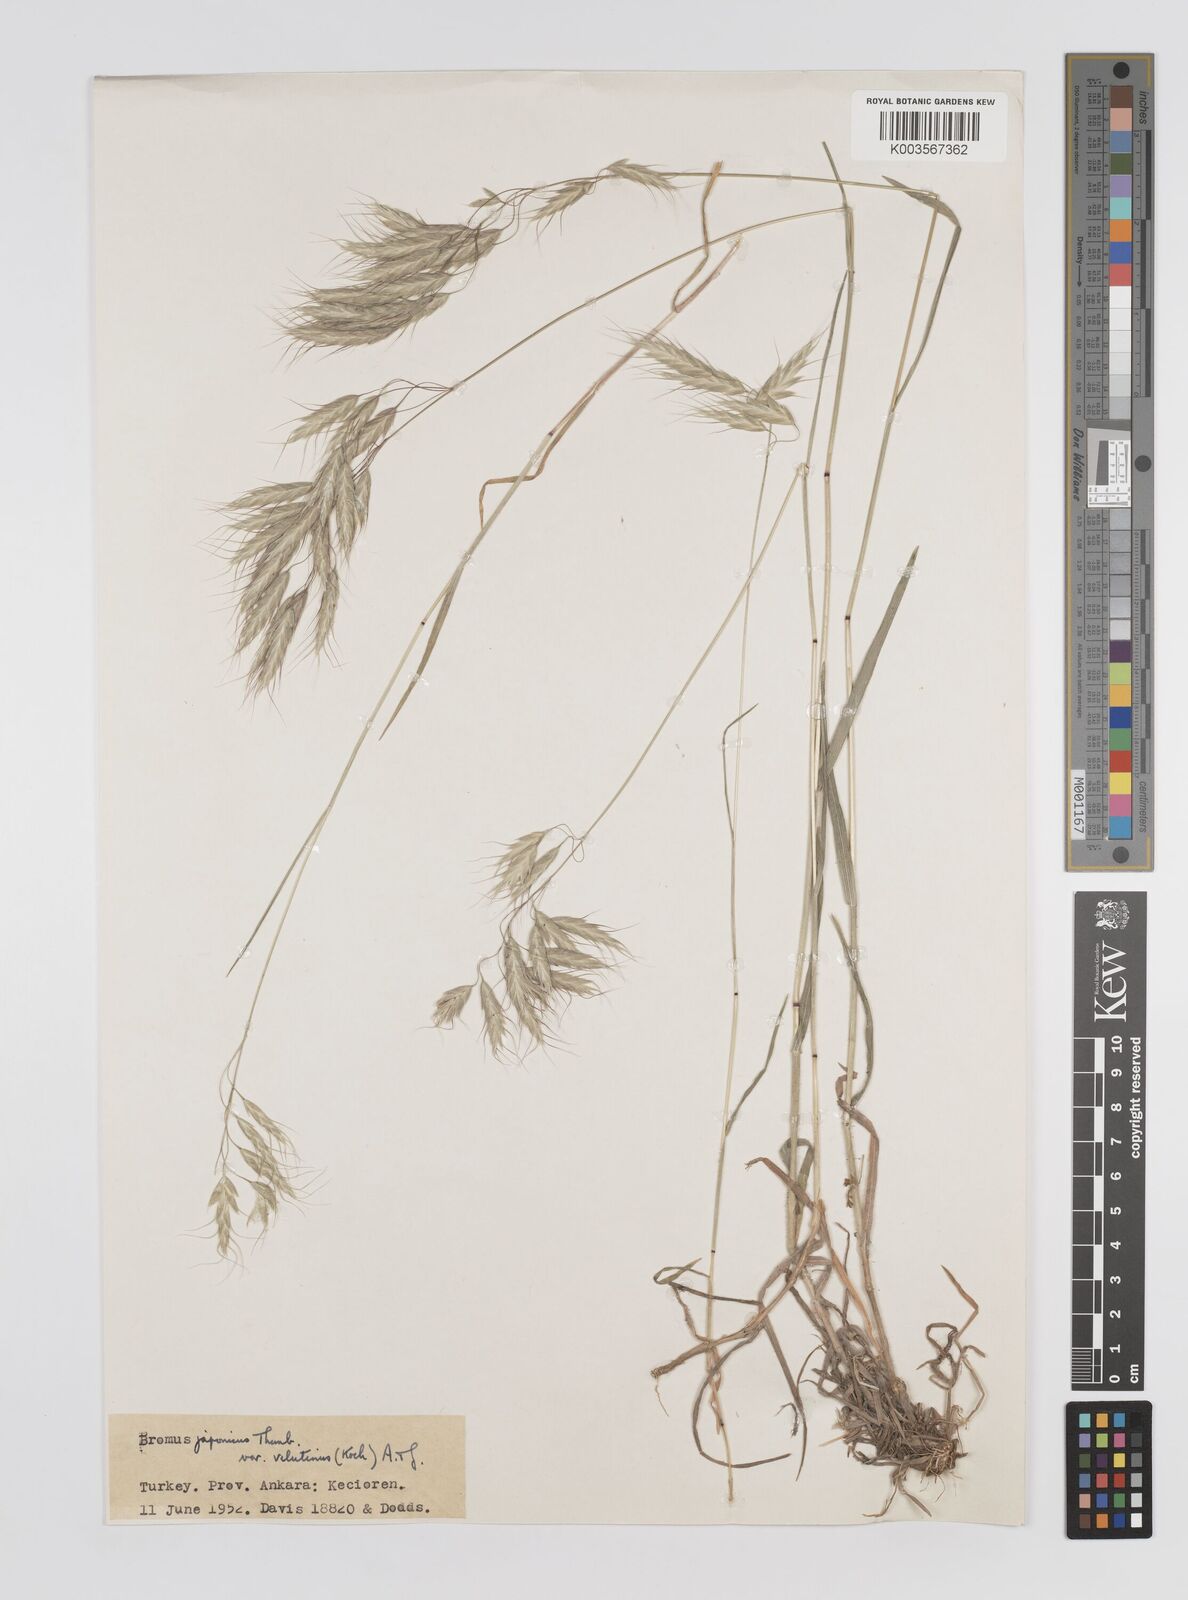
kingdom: Plantae
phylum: Tracheophyta
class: Liliopsida
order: Poales
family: Poaceae
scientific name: Poaceae
